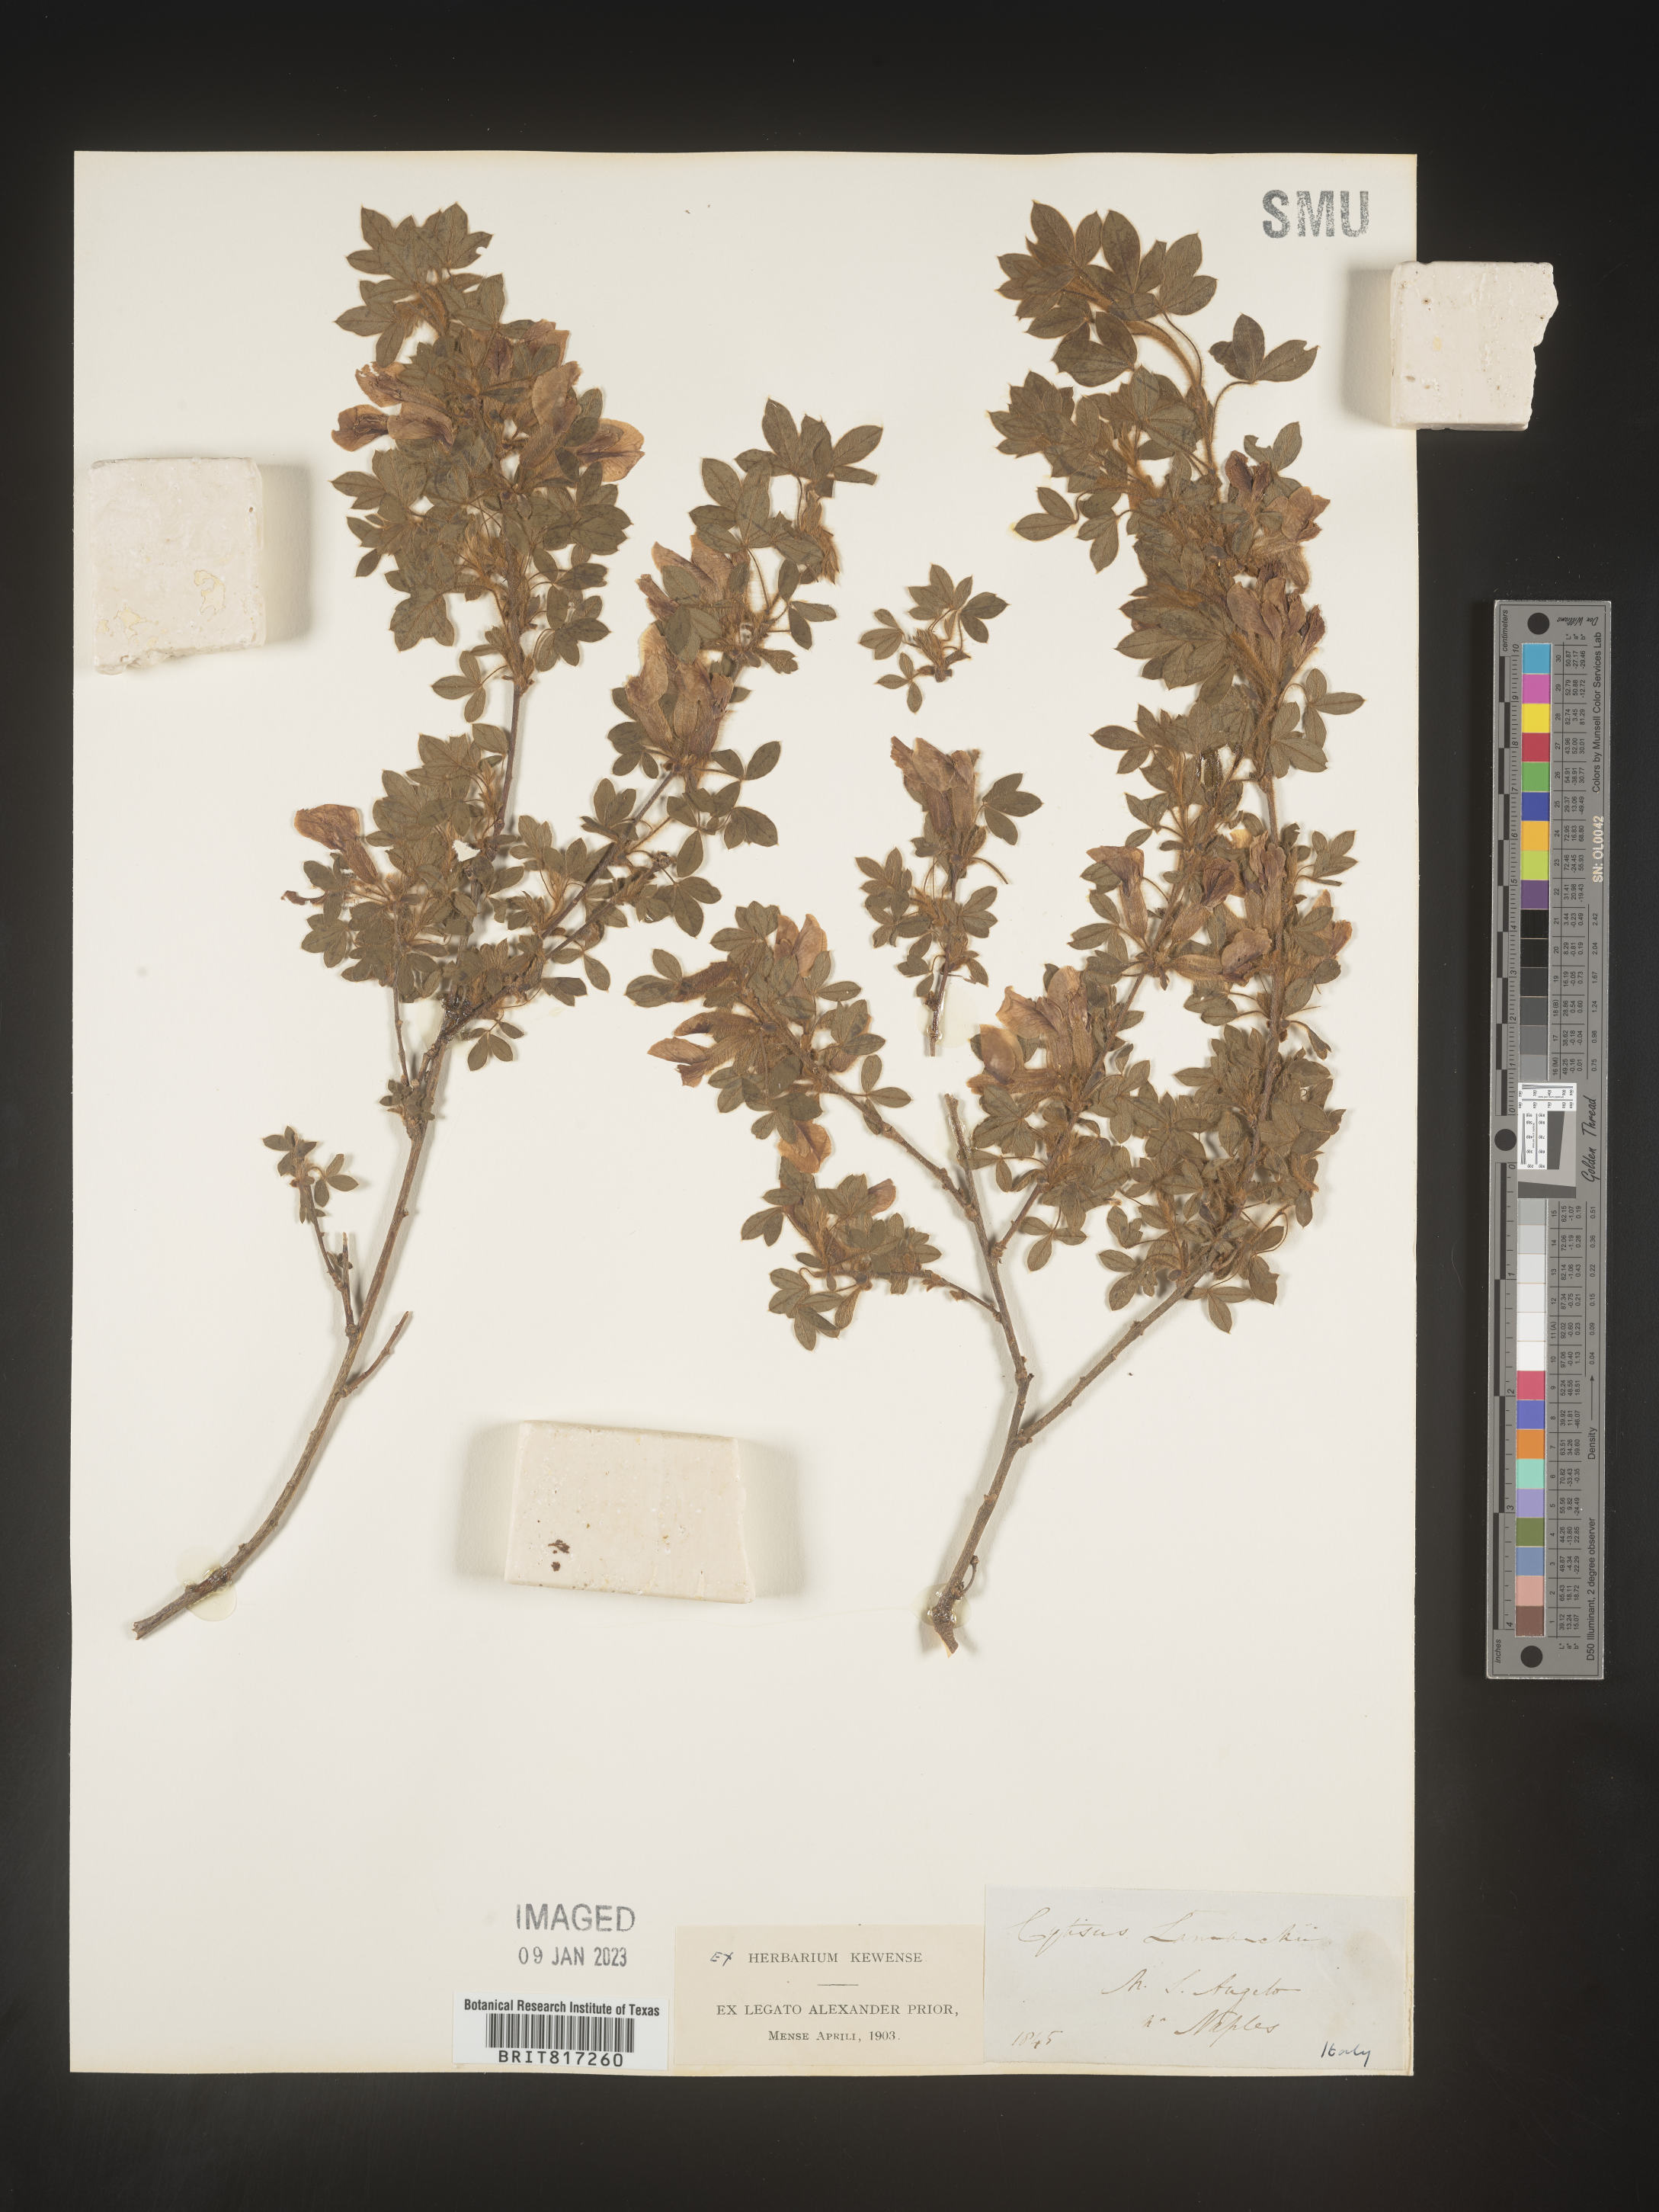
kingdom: Plantae
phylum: Tracheophyta
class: Magnoliopsida
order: Fabales
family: Fabaceae
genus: Cytisus
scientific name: Cytisus
